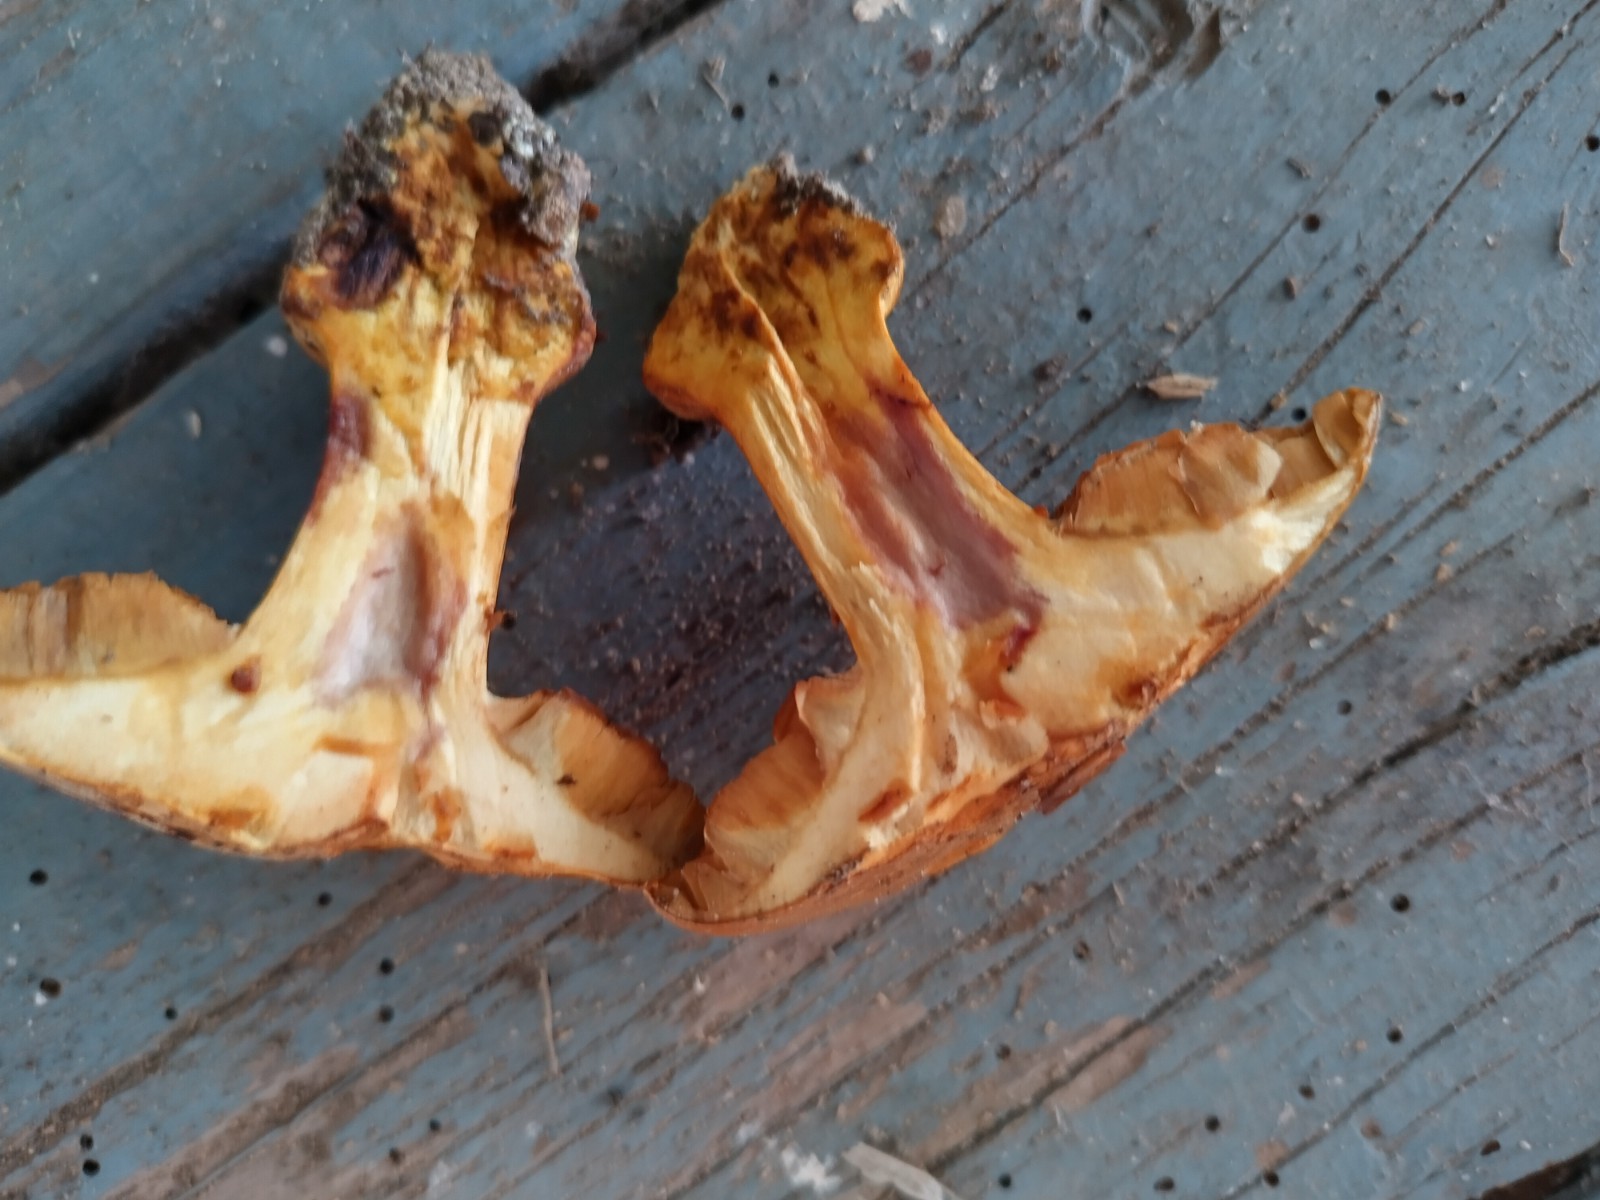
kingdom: Fungi
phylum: Basidiomycota
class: Agaricomycetes
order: Agaricales
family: Cortinariaceae
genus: Calonarius
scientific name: Calonarius alcalinophilus
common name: gyldenbrun slørhat
